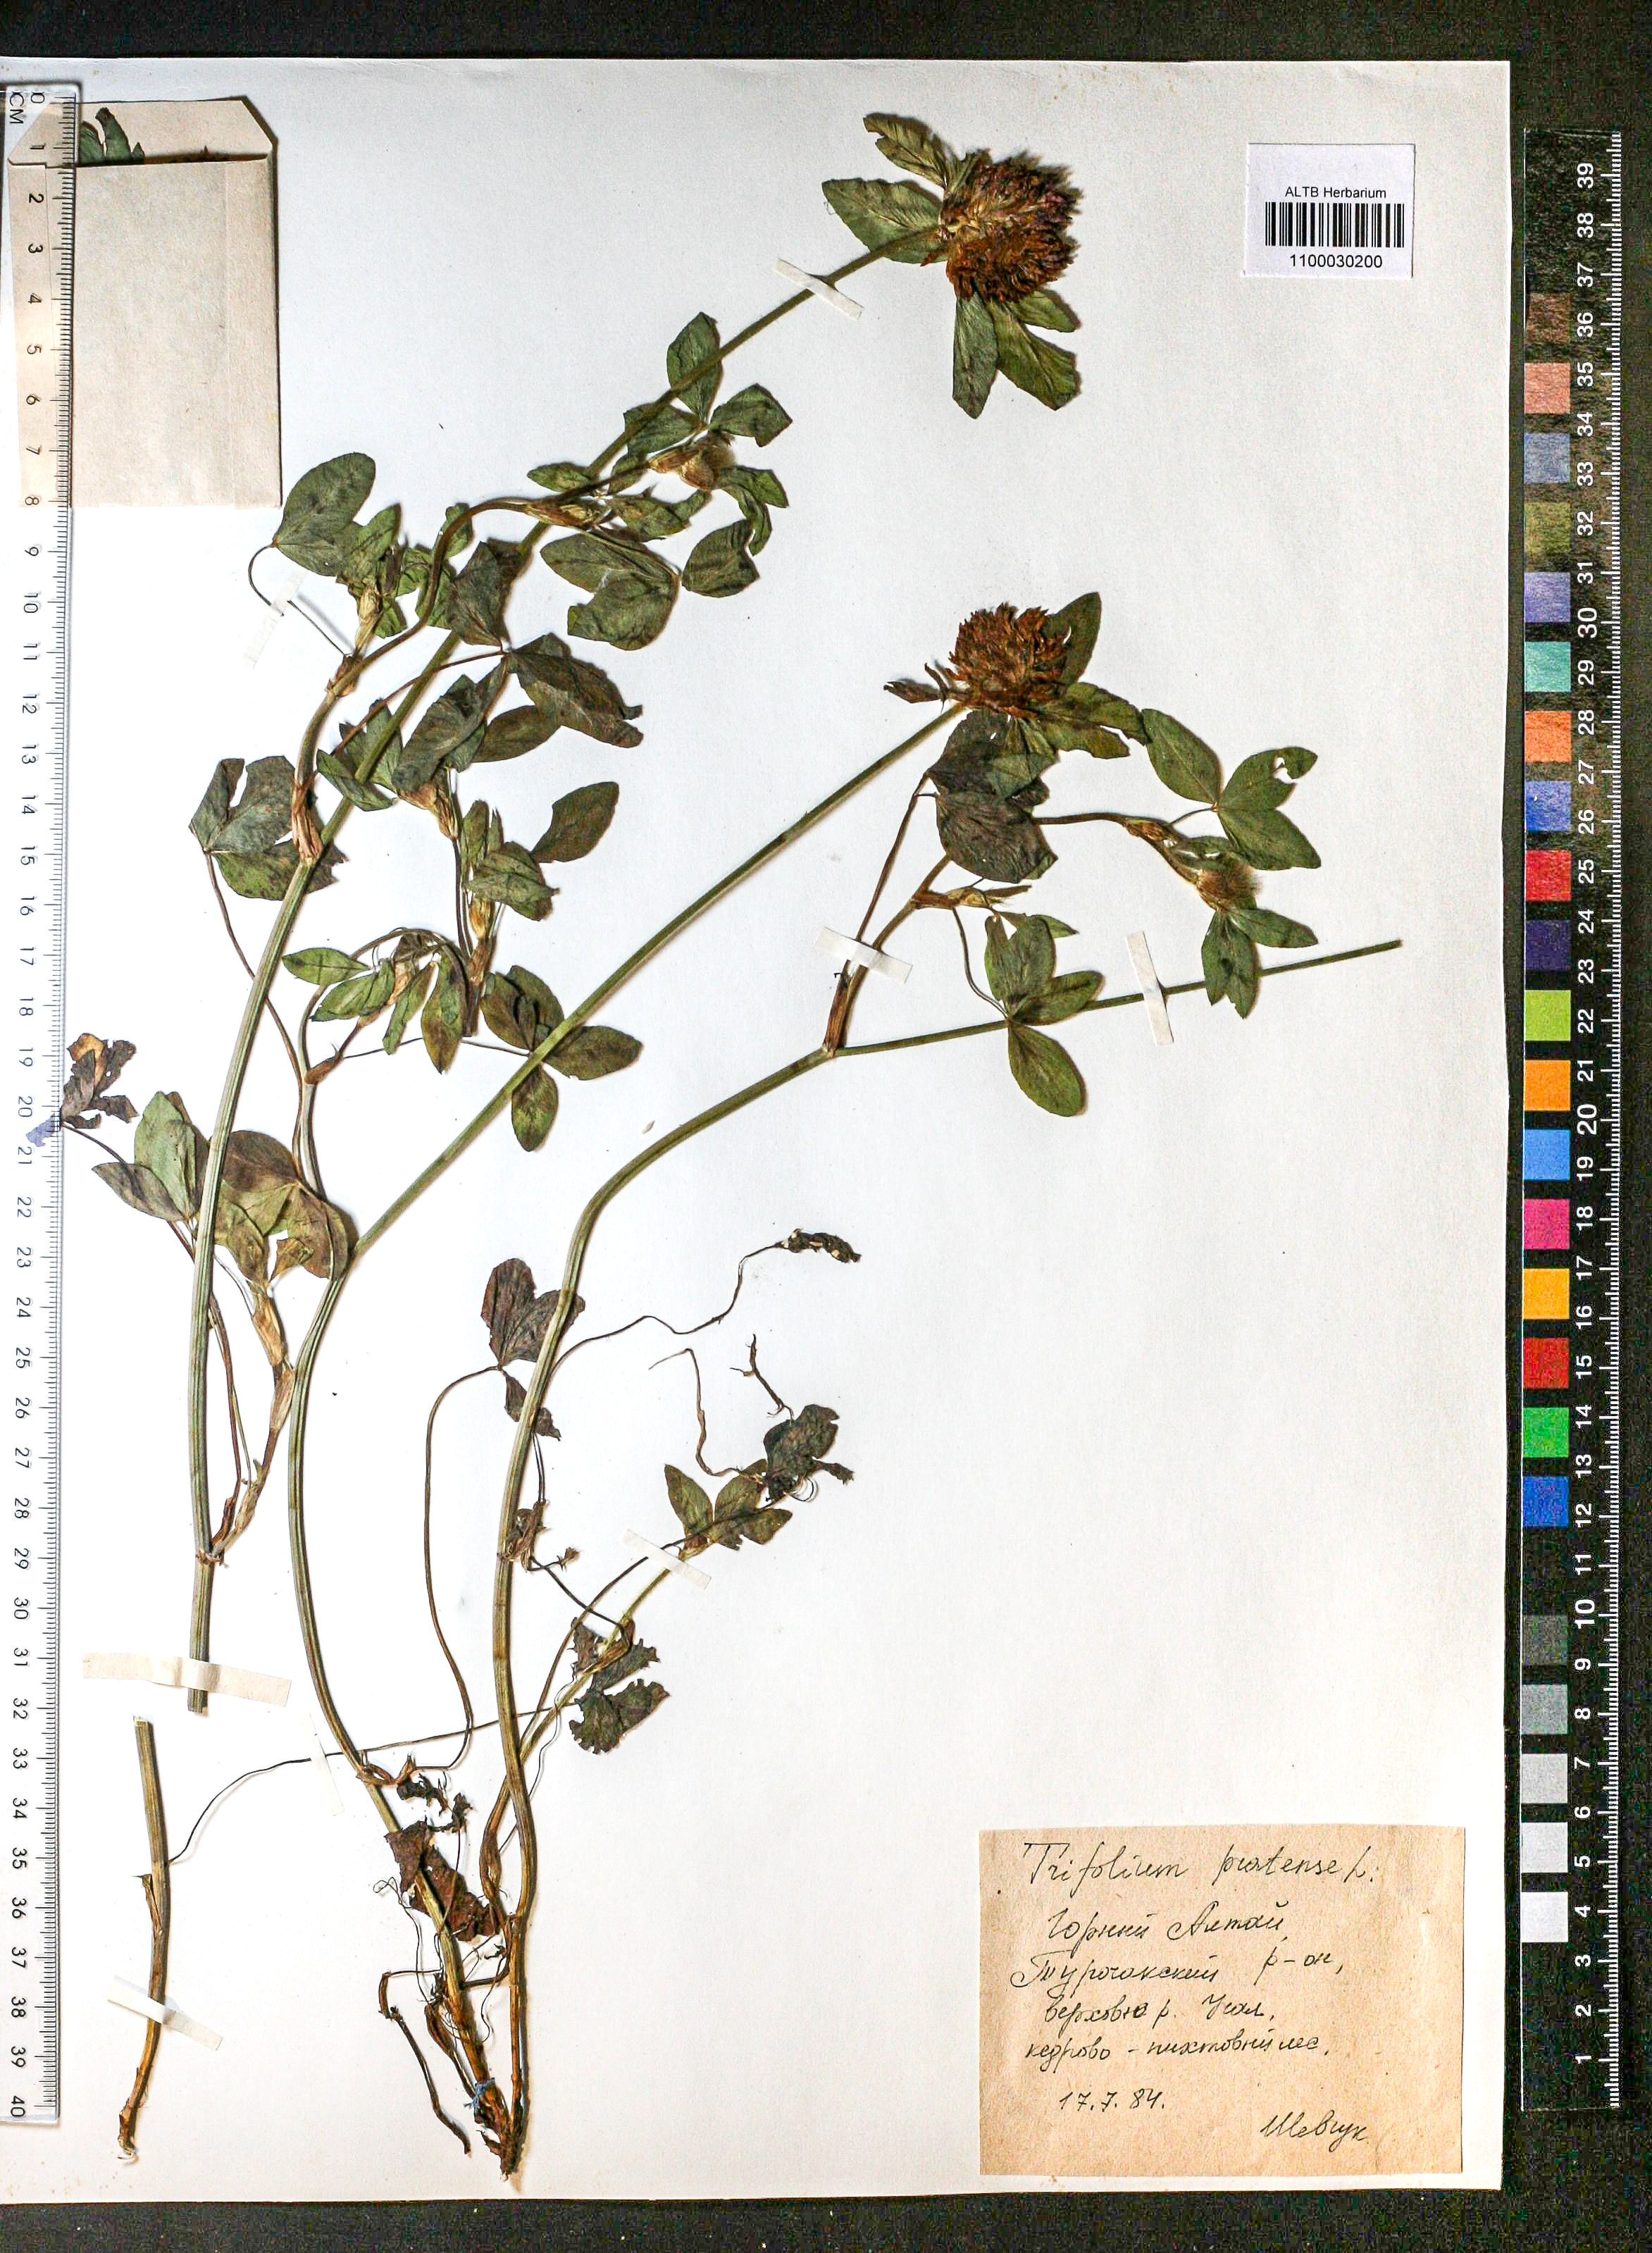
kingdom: Plantae
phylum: Tracheophyta
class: Magnoliopsida
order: Fabales
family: Fabaceae
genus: Trifolium
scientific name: Trifolium pratense
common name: Red clover
